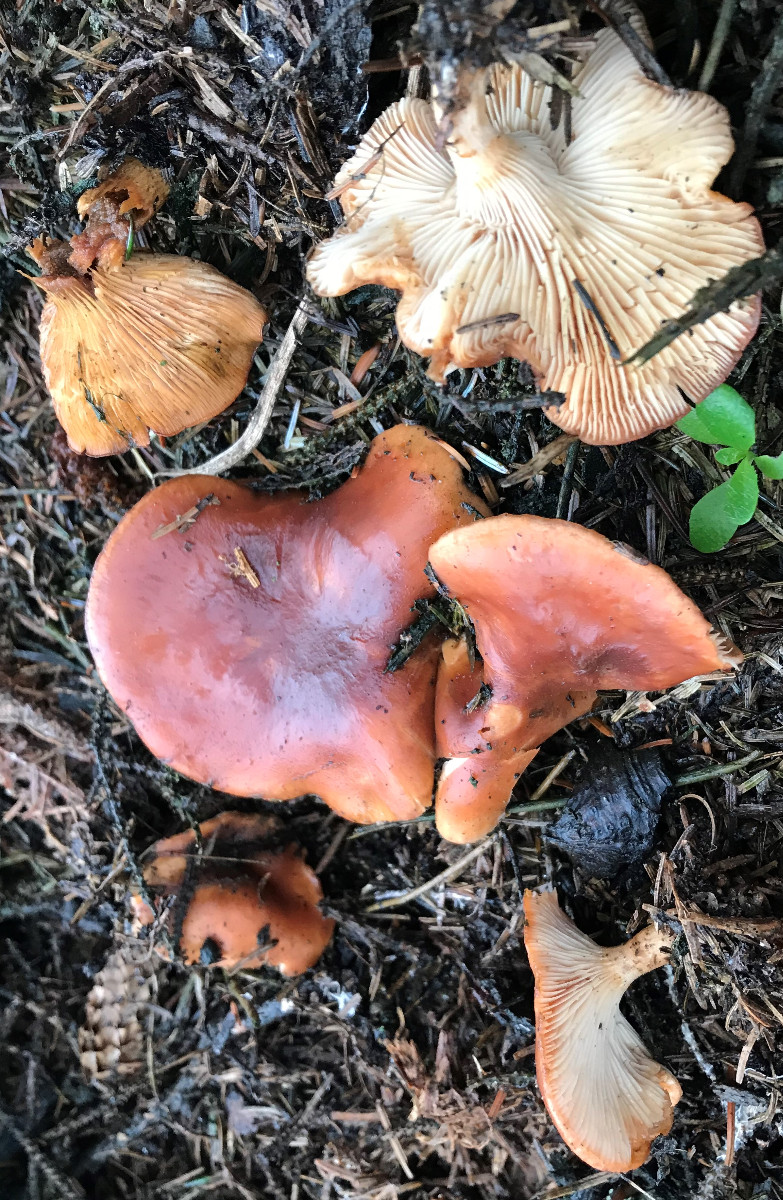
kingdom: Fungi
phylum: Basidiomycota
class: Agaricomycetes
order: Agaricales
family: Tricholomataceae
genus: Paralepista
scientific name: Paralepista flaccida
